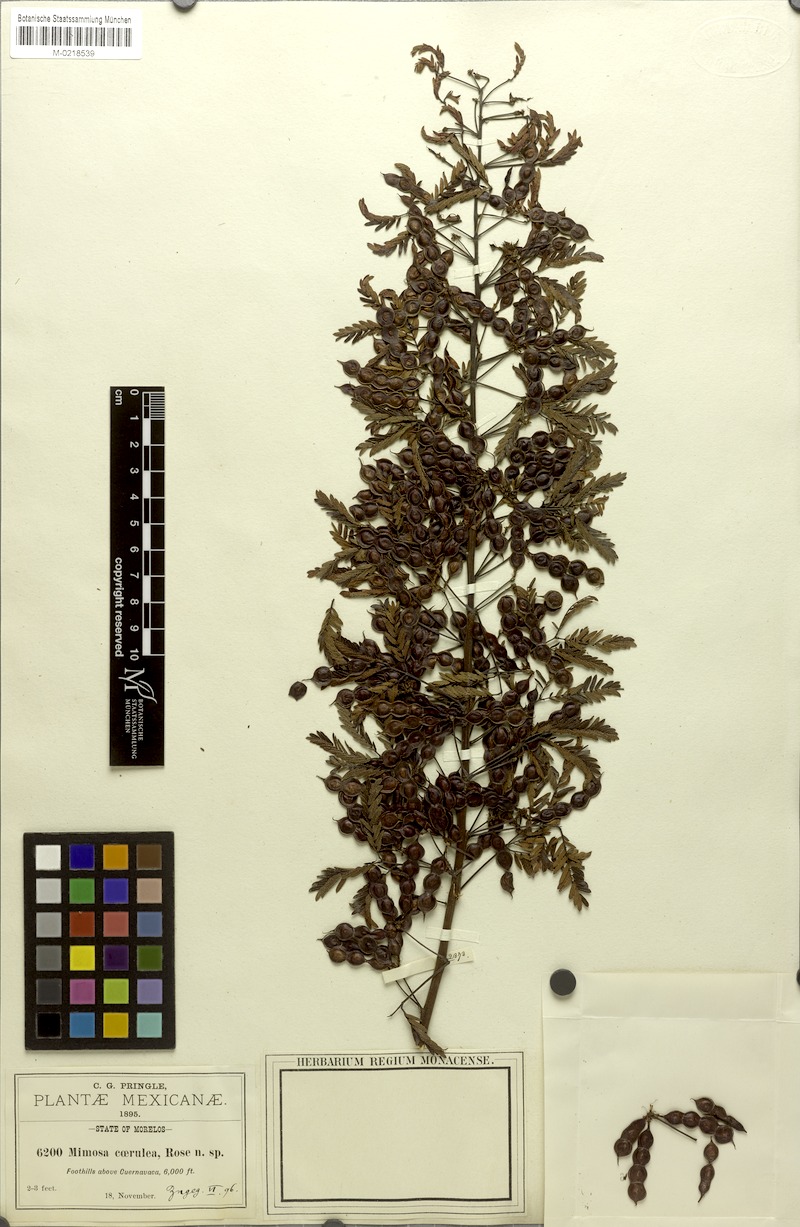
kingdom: Plantae
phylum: Tracheophyta
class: Magnoliopsida
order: Fabales
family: Fabaceae
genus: Mimosa
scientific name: Mimosa caerulea
